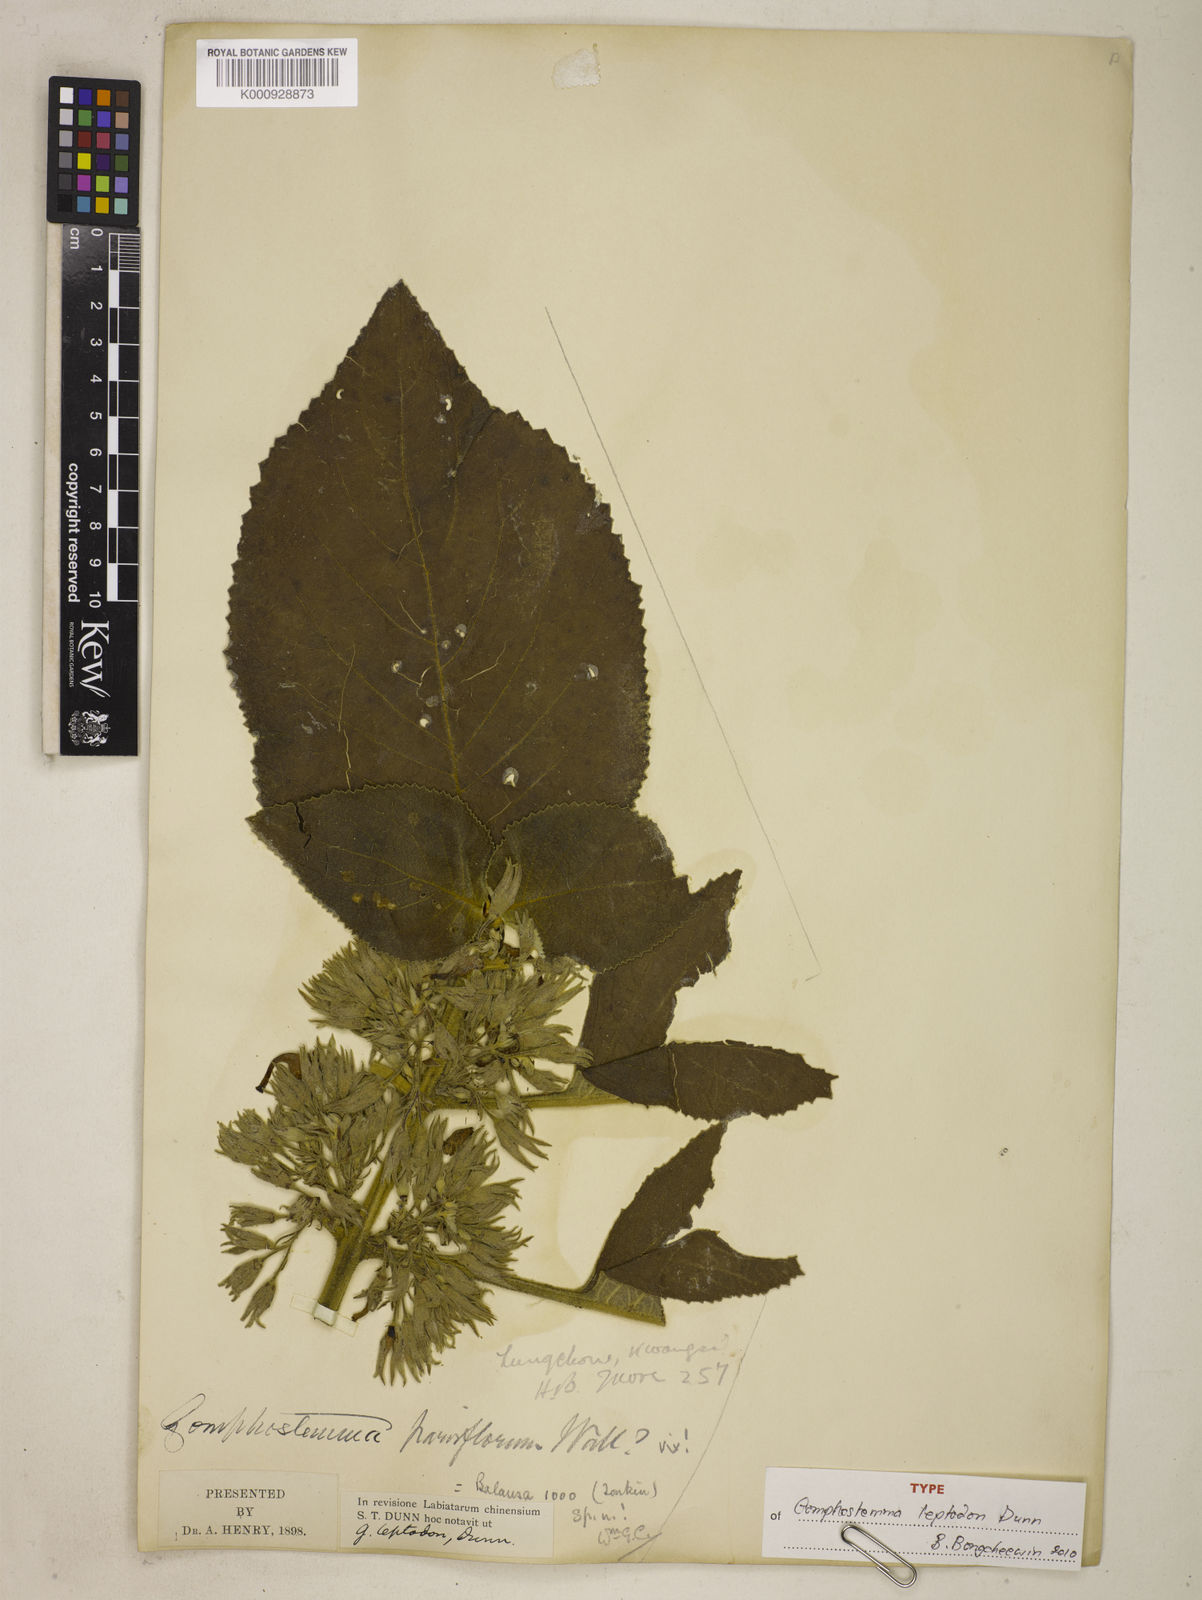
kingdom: Plantae
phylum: Tracheophyta
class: Magnoliopsida
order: Lamiales
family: Lamiaceae
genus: Gomphostemma
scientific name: Gomphostemma leptodon
